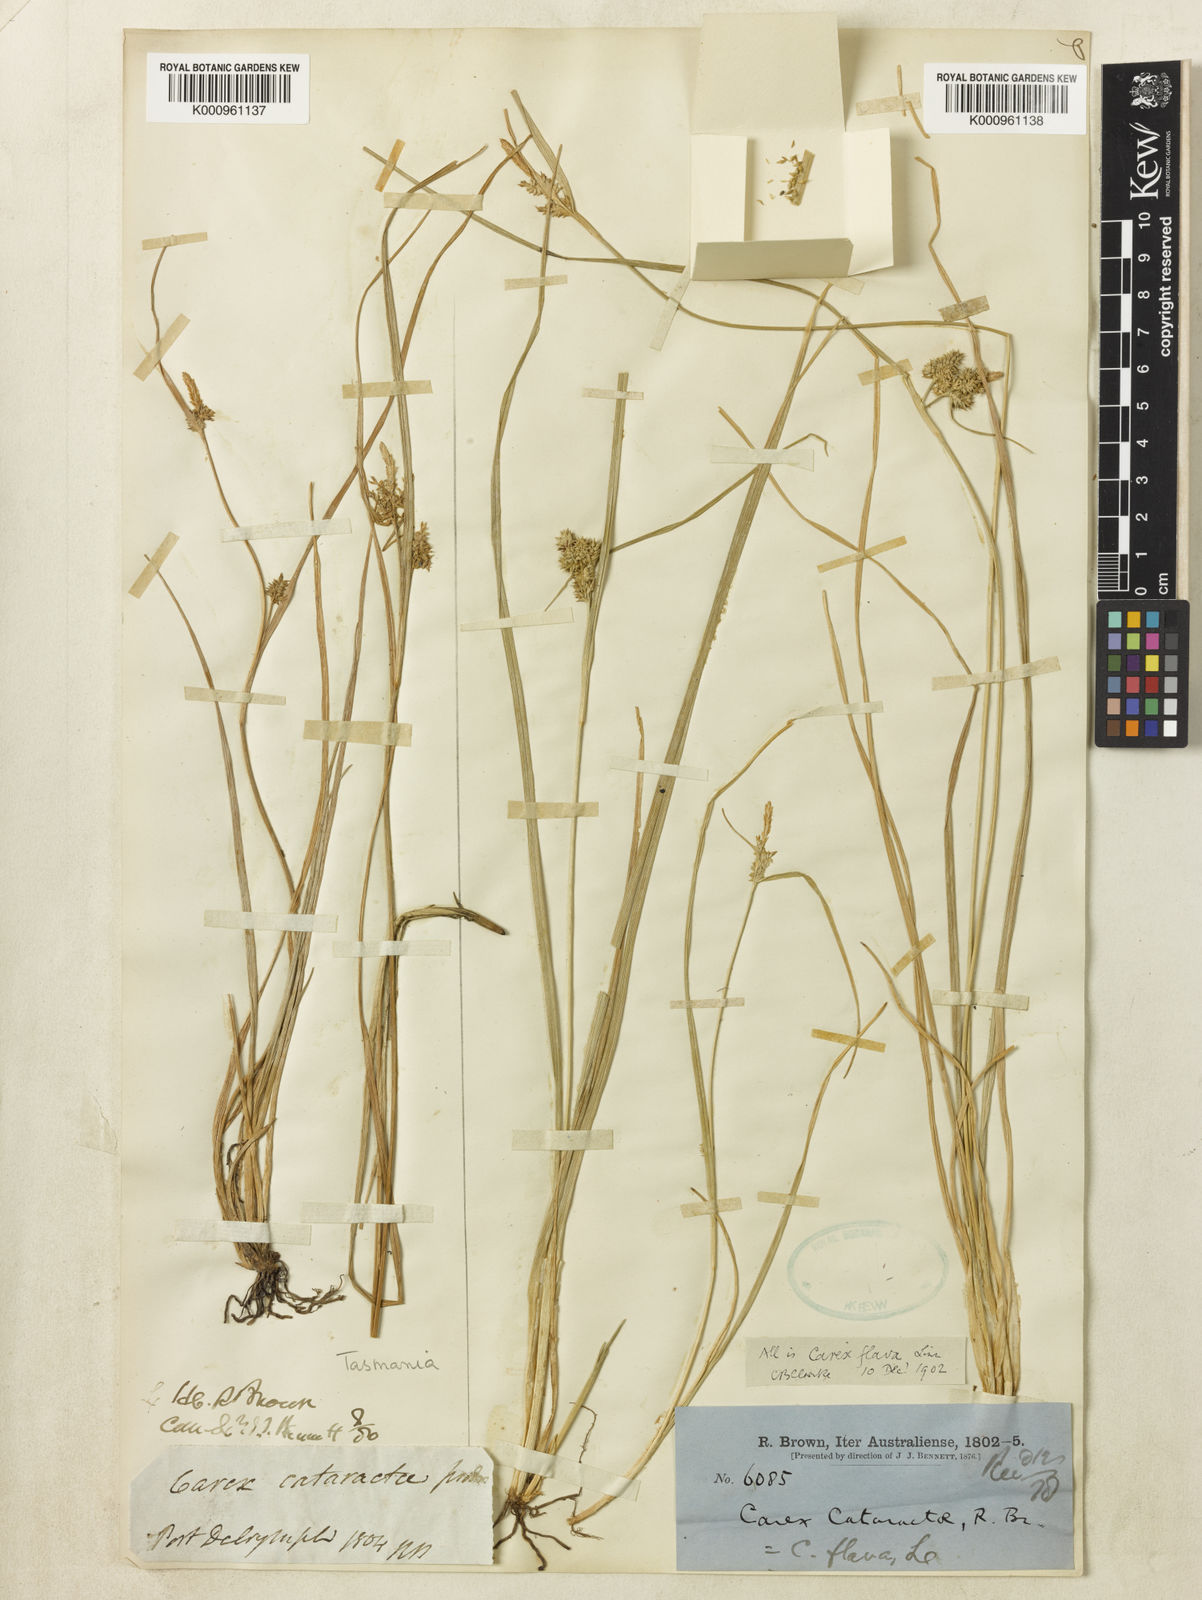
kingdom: Plantae
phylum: Tracheophyta
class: Liliopsida
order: Poales
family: Cyperaceae
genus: Carex
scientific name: Carex cataractae
